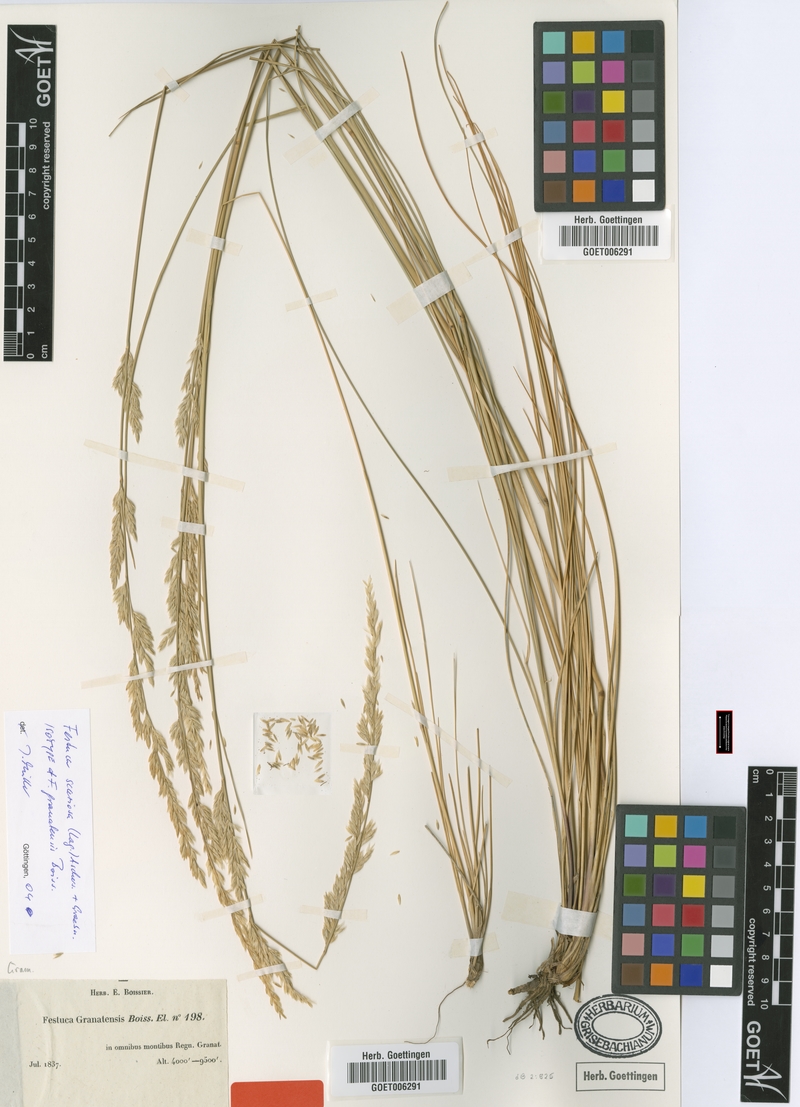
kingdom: Plantae
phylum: Tracheophyta
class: Liliopsida
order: Poales
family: Poaceae
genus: Festuca
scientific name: Festuca scariosa
